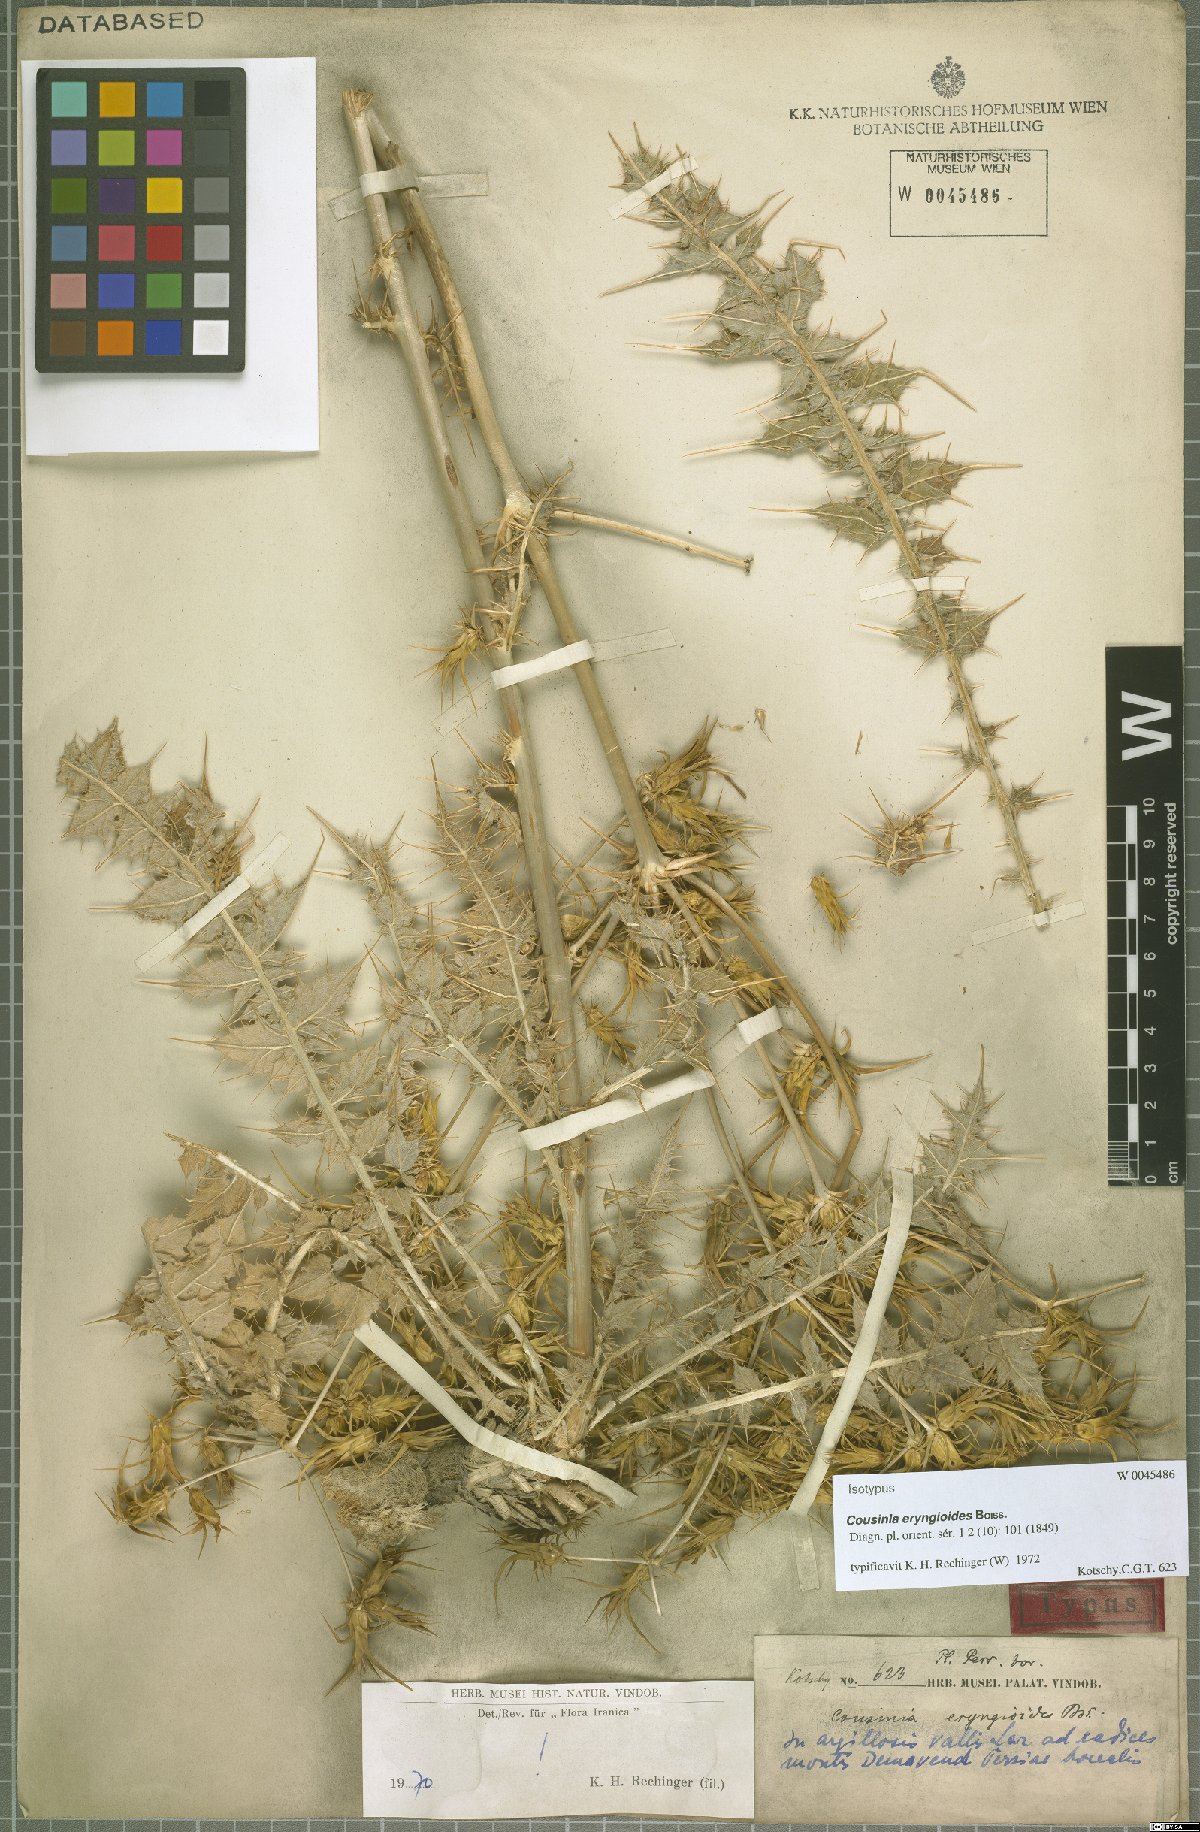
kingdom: Plantae
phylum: Tracheophyta
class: Magnoliopsida
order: Asterales
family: Asteraceae
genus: Cousinia
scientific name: Cousinia eryngioides
